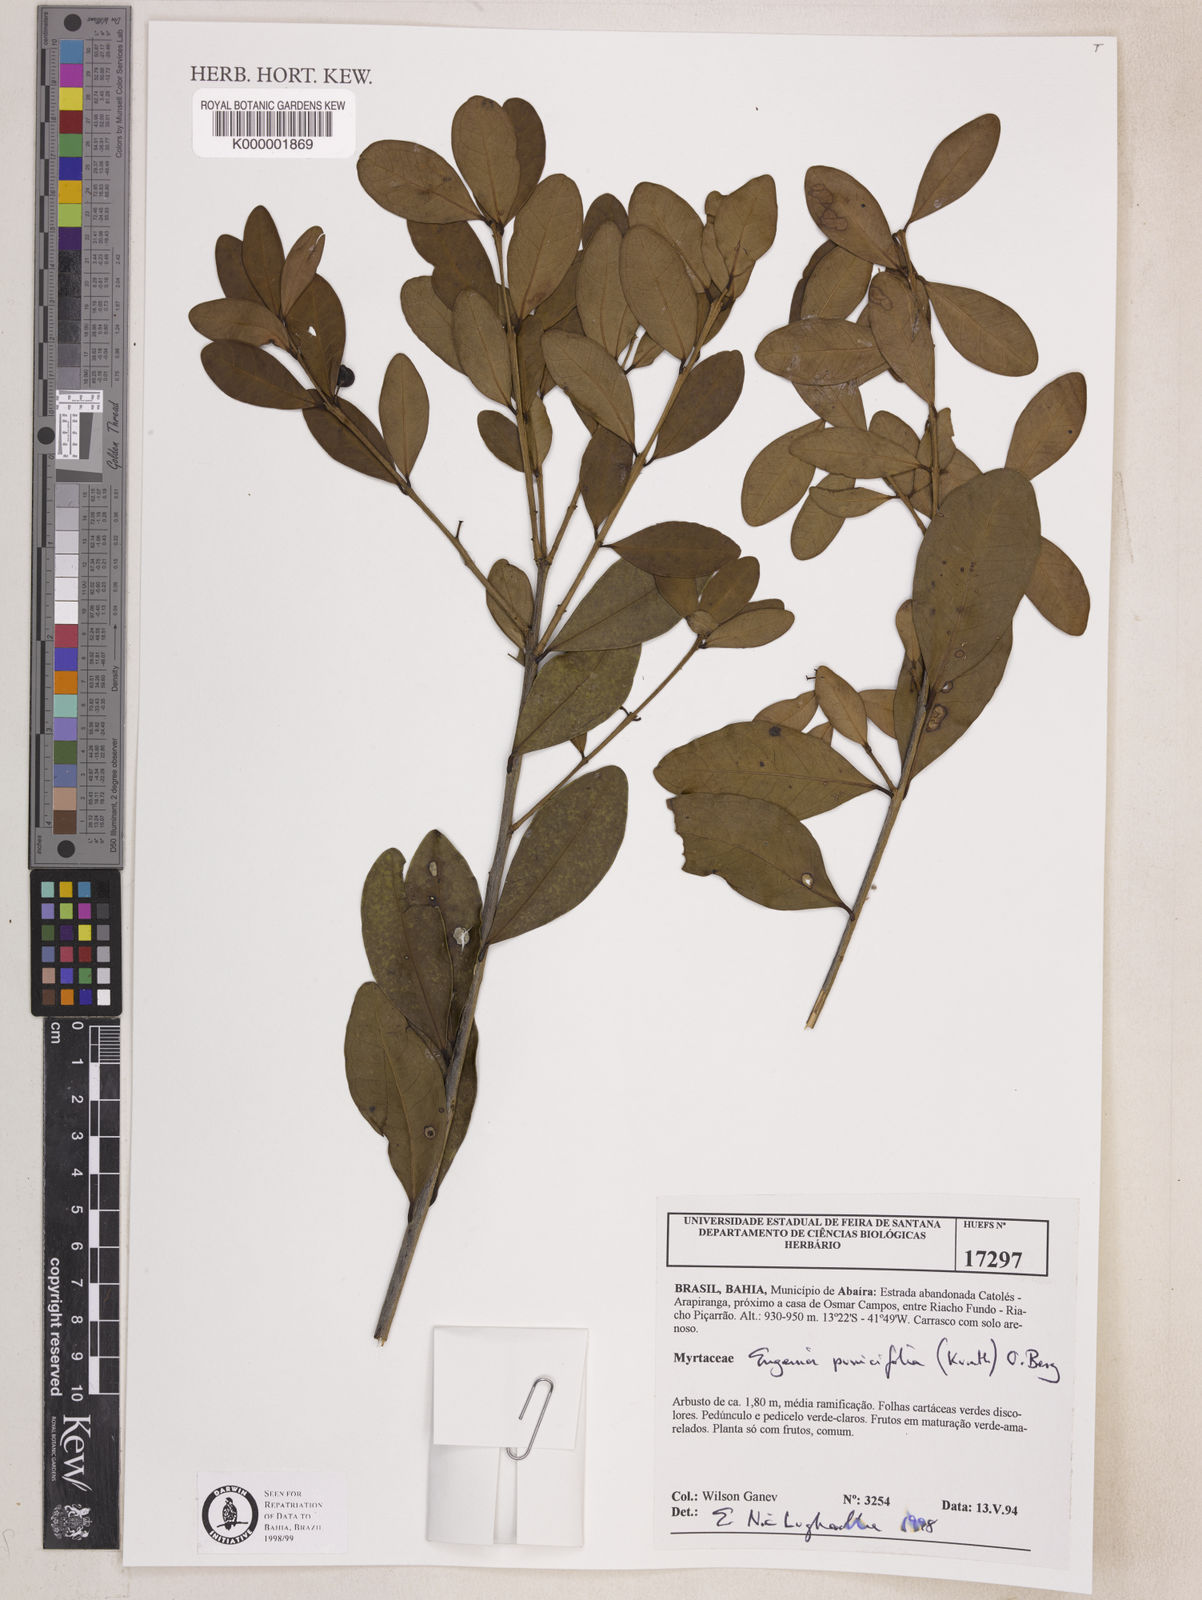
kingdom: Plantae
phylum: Tracheophyta
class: Magnoliopsida
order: Myrtales
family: Myrtaceae
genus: Eugenia
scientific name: Eugenia punicifolia
